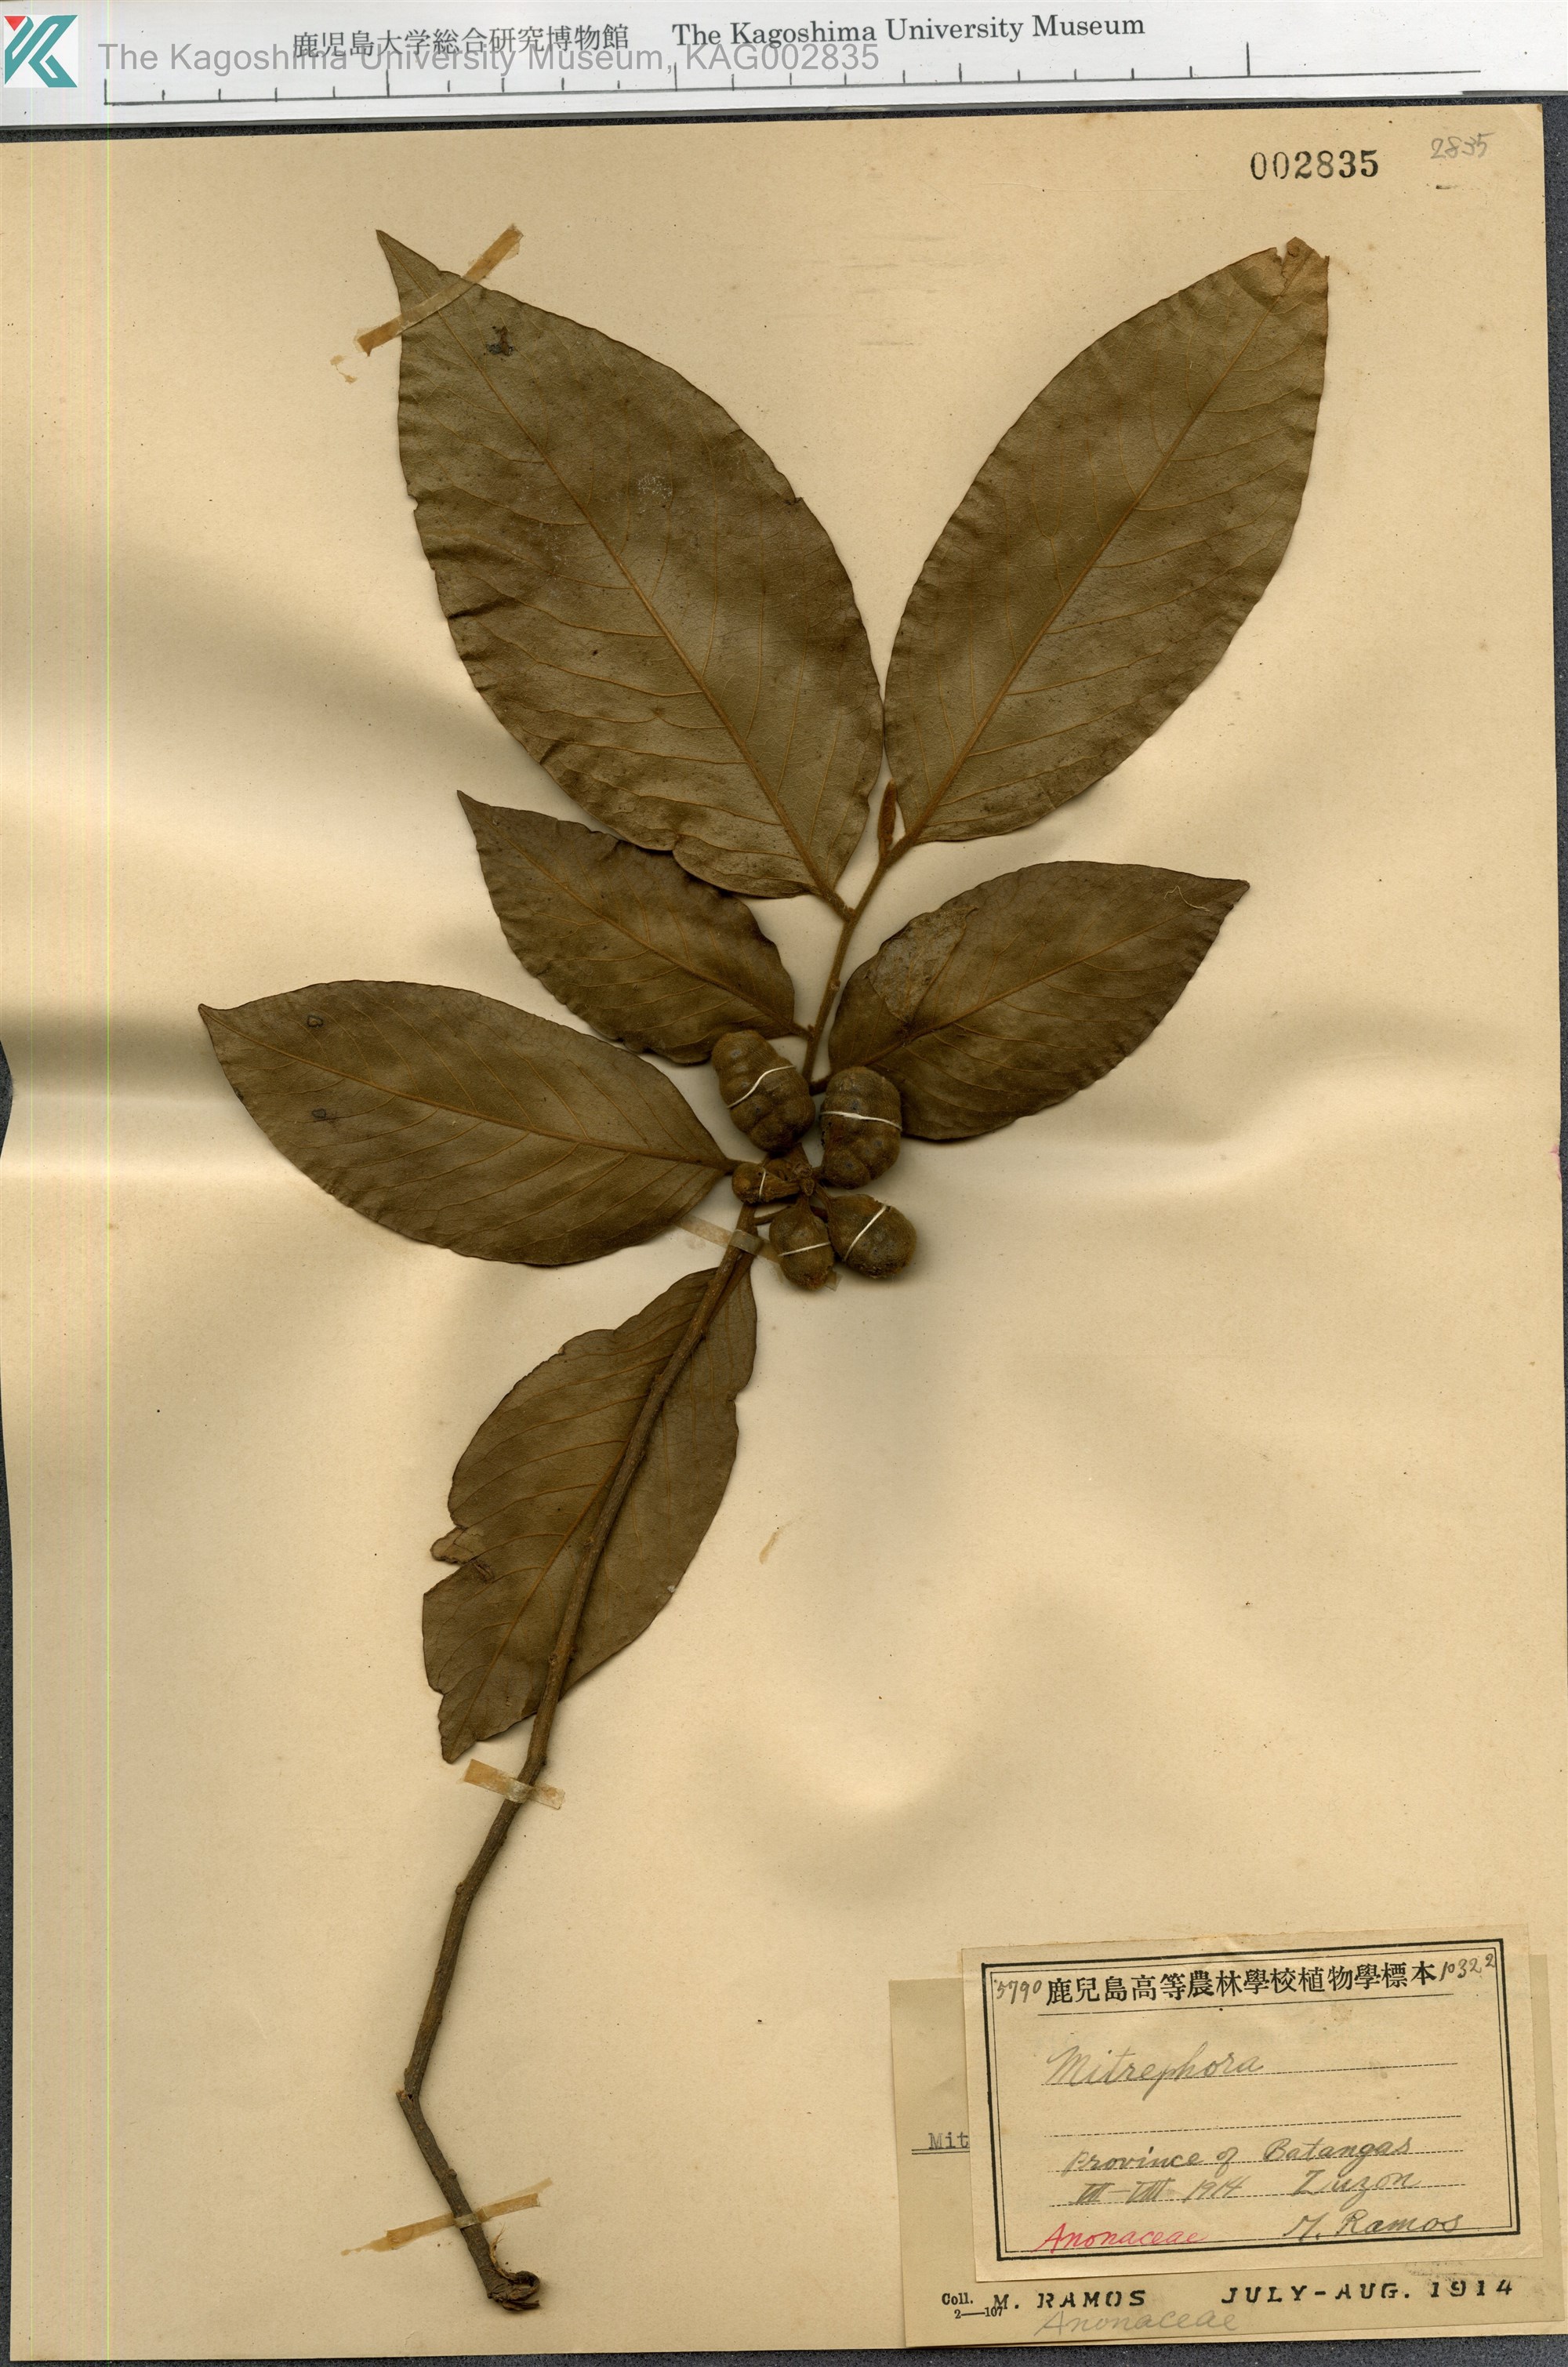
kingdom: Plantae
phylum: Tracheophyta
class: Magnoliopsida
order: Magnoliales
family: Annonaceae
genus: Mitrephora
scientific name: Mitrephora
